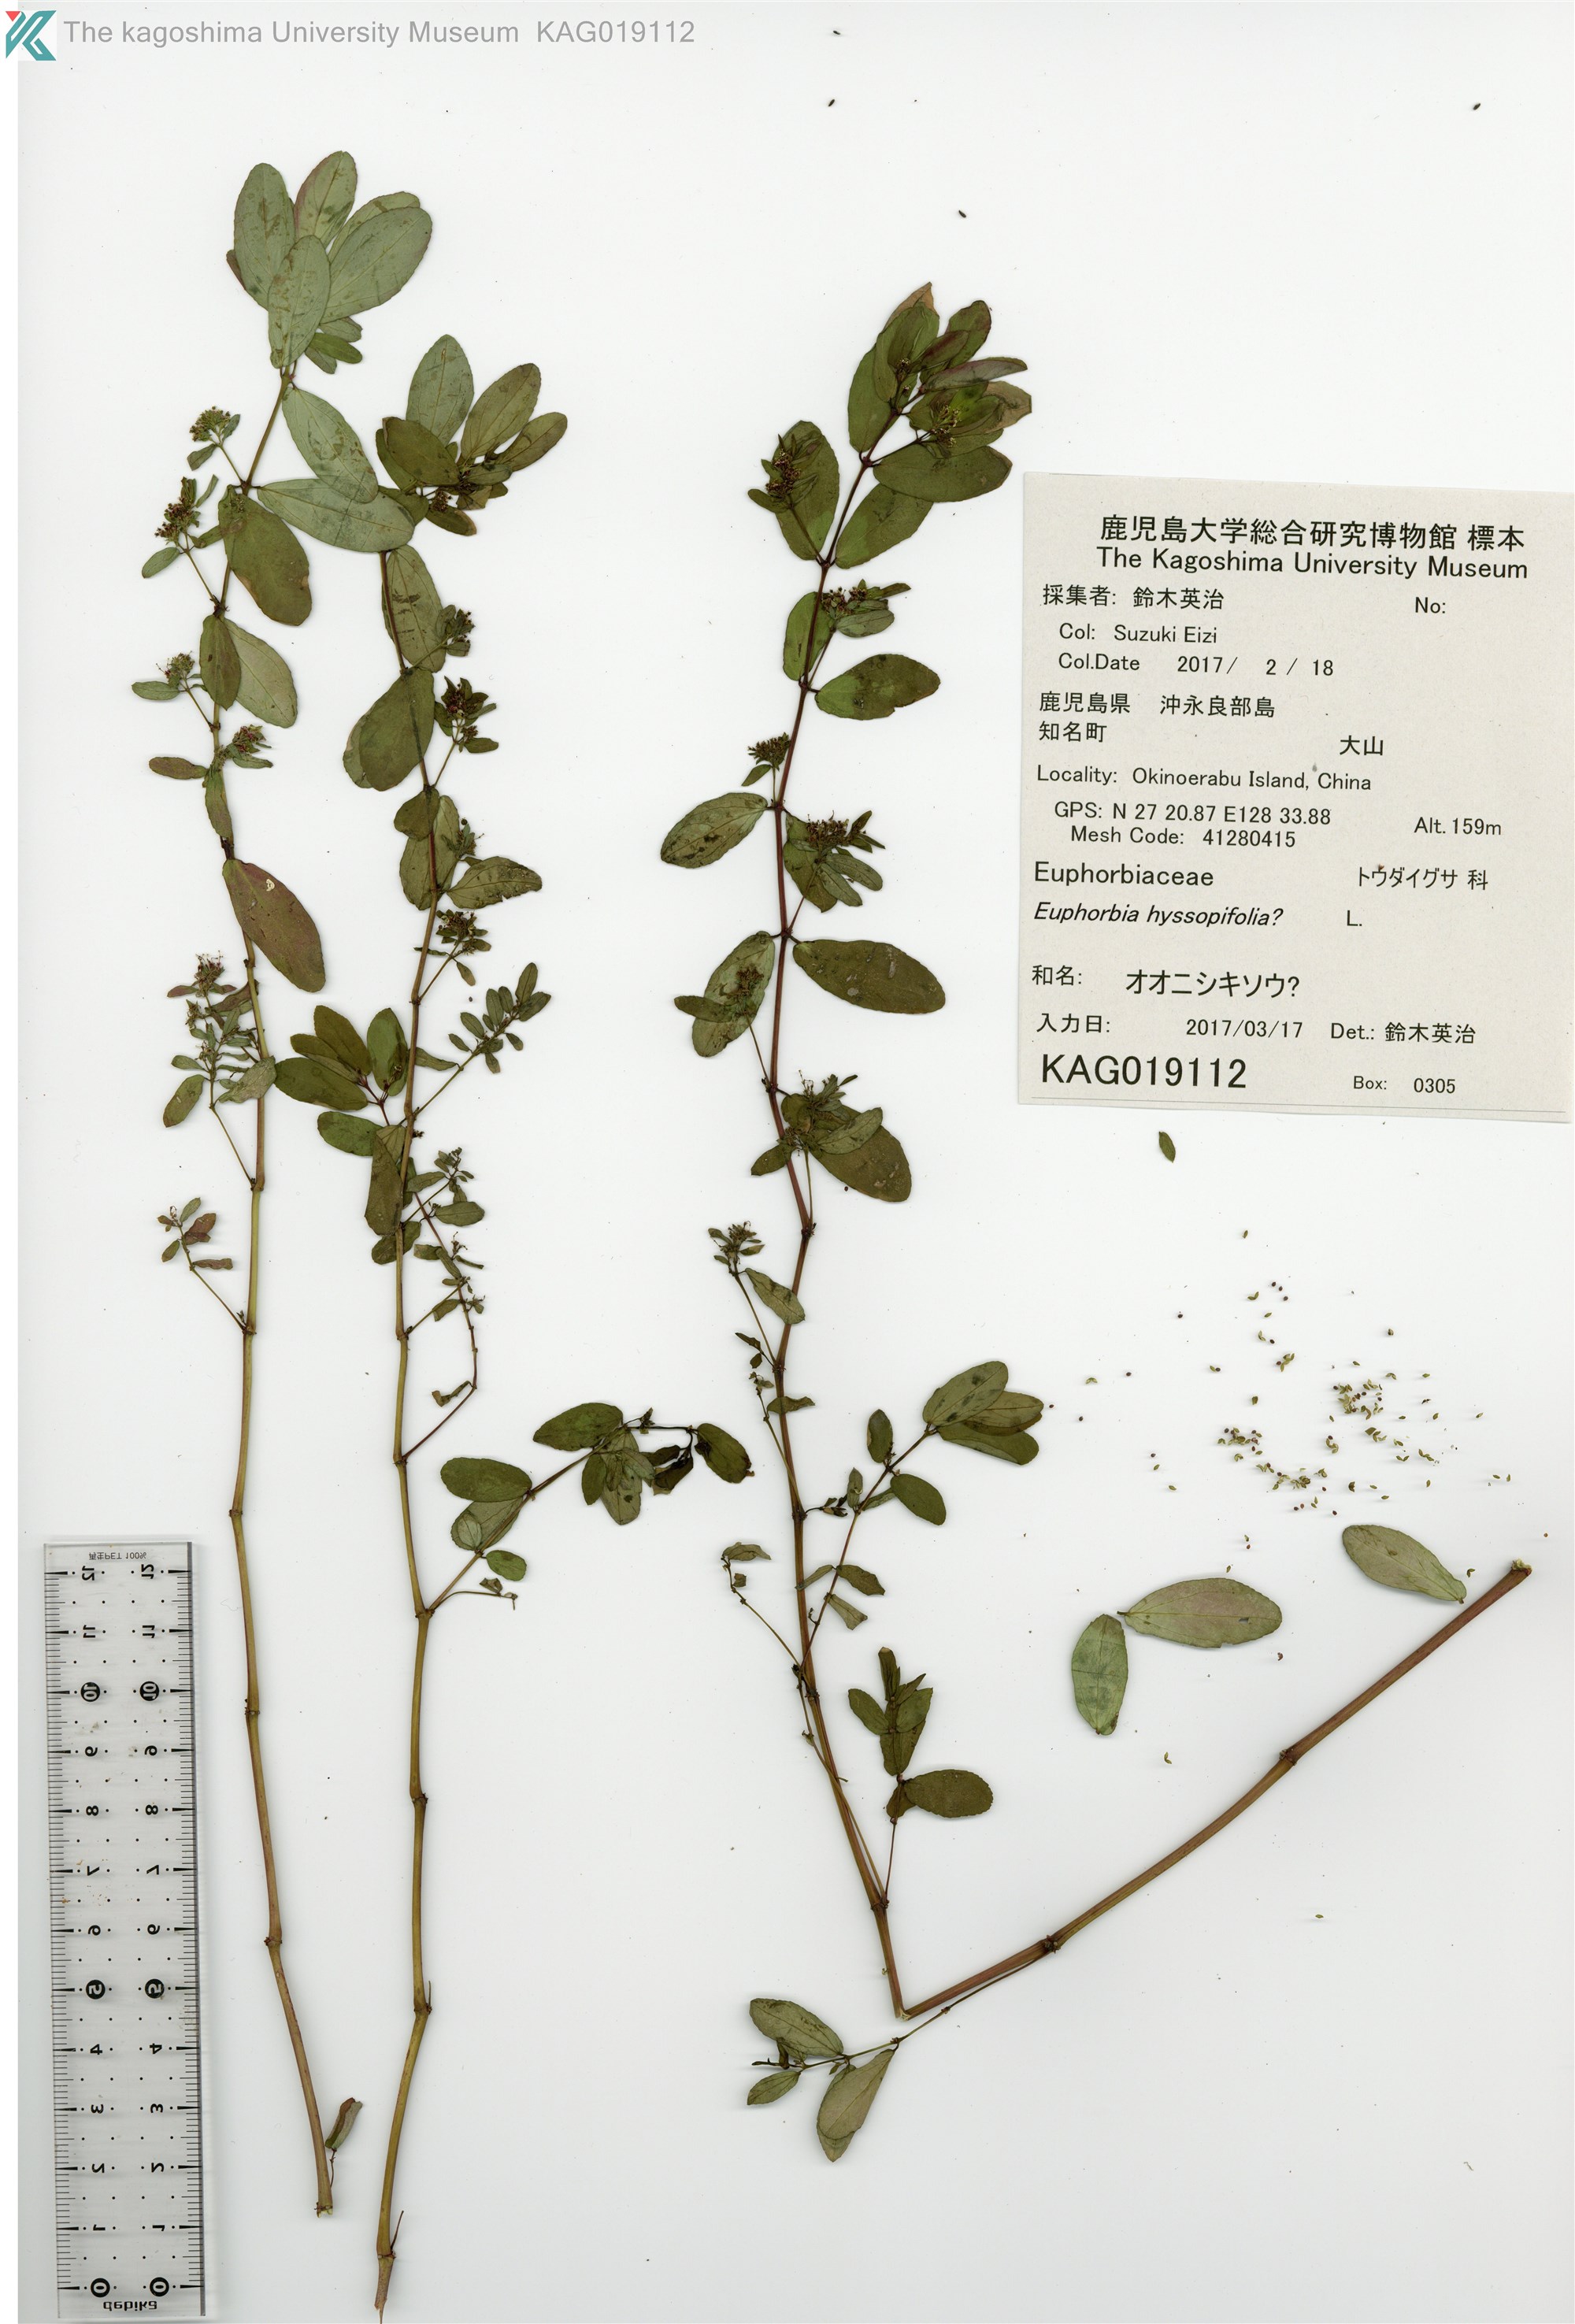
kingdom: Plantae
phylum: Tracheophyta
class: Magnoliopsida
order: Malpighiales
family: Euphorbiaceae
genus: Euphorbia
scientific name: Euphorbia nutans
